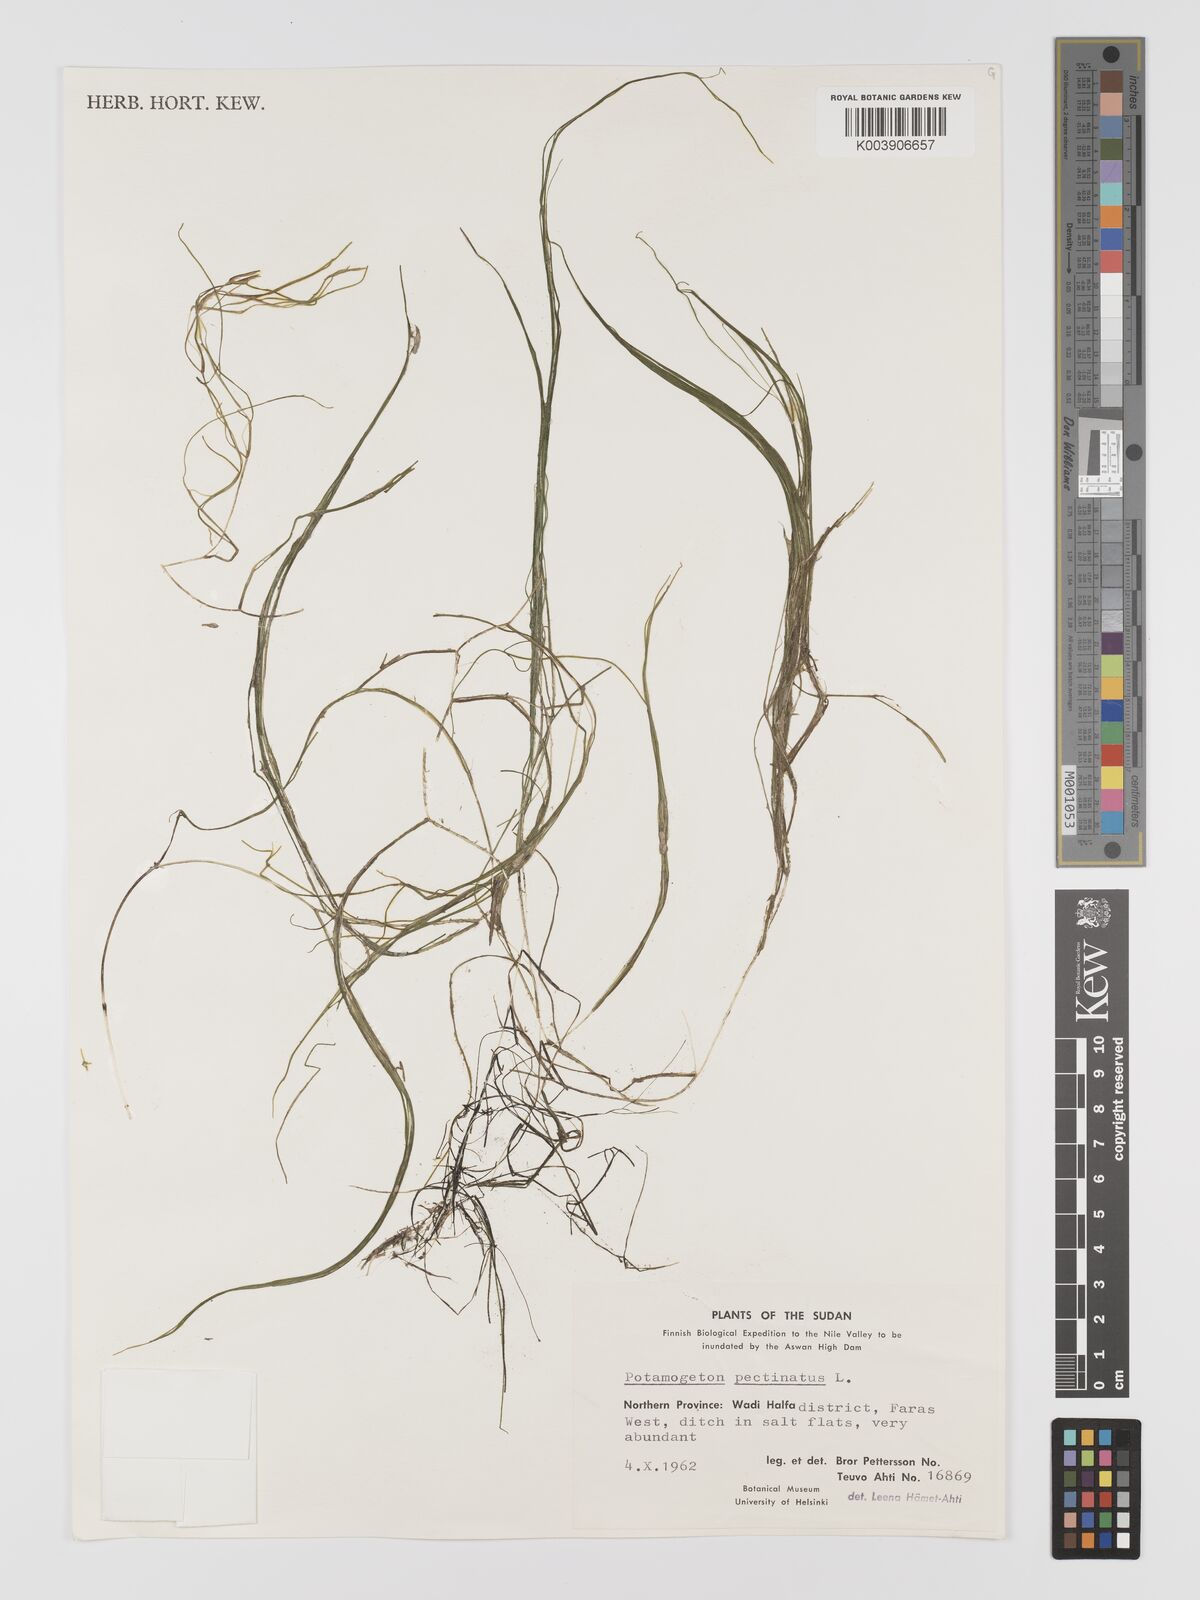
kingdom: Plantae
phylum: Tracheophyta
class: Liliopsida
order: Alismatales
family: Potamogetonaceae
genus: Stuckenia
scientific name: Stuckenia pectinata
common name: Sago pondweed
